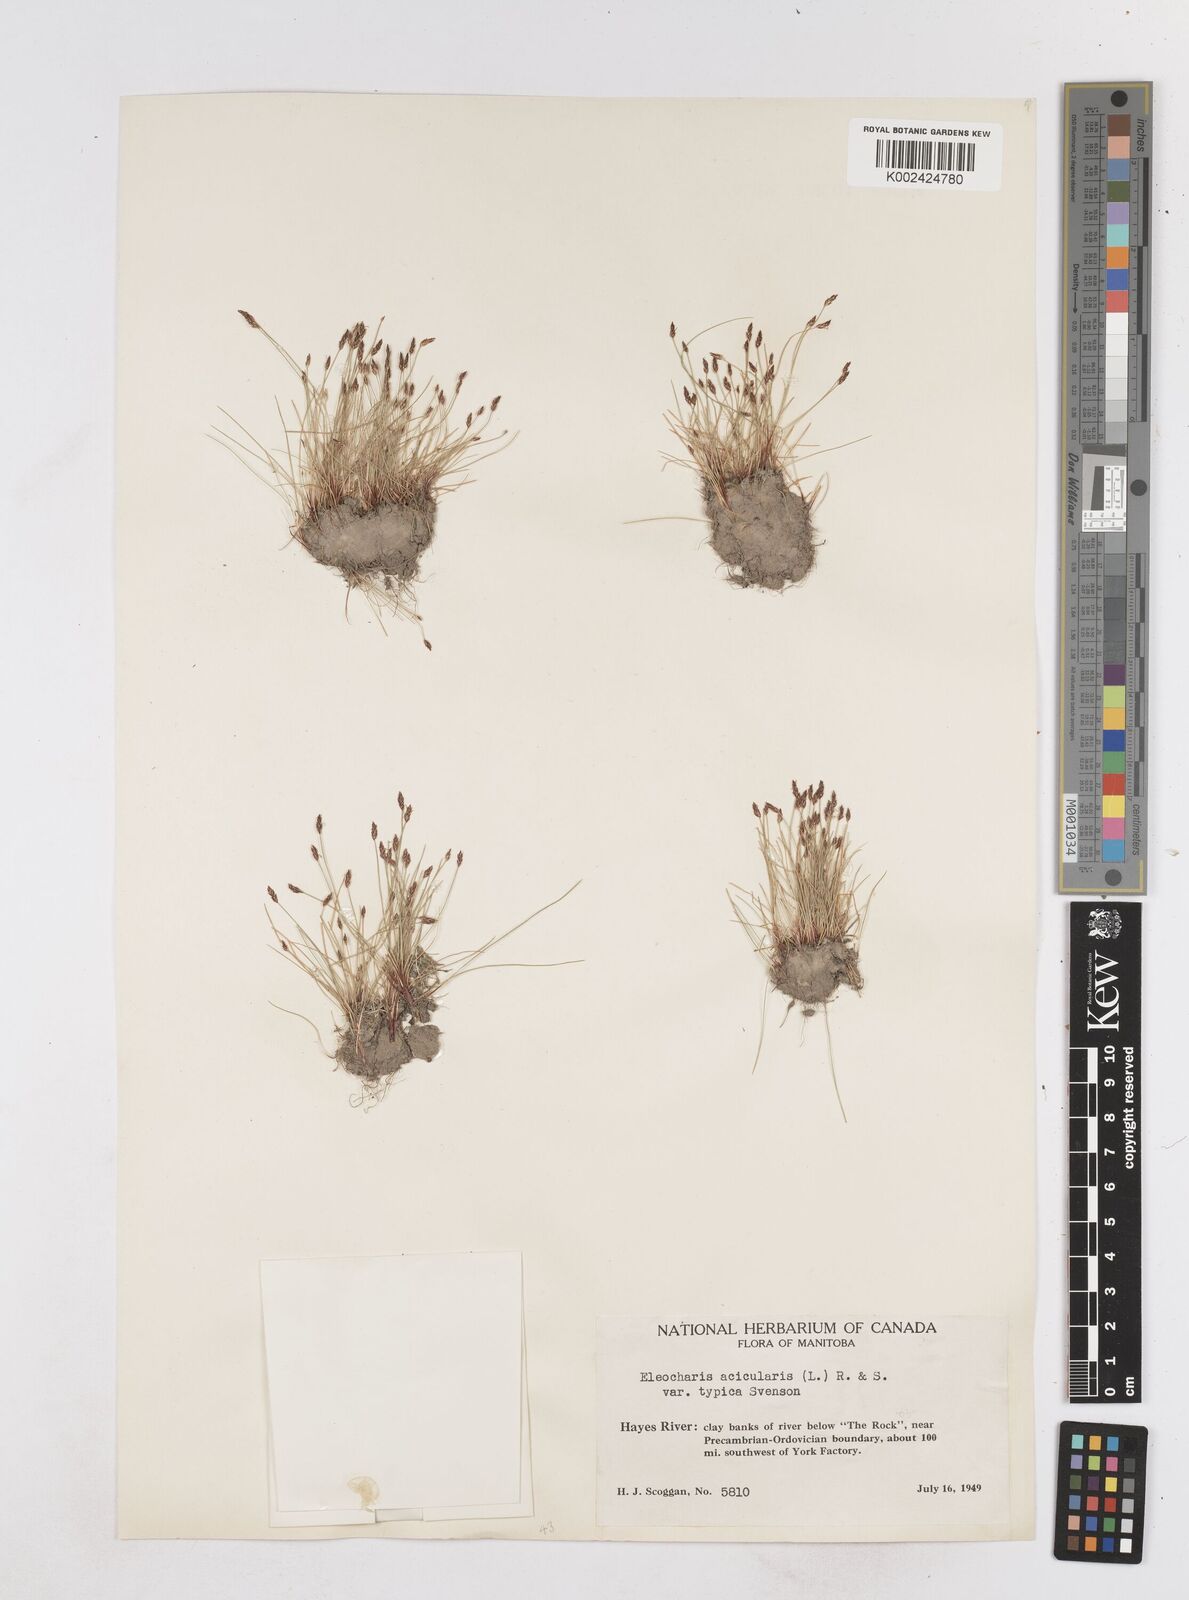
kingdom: Plantae
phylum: Tracheophyta
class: Liliopsida
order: Poales
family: Cyperaceae
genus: Eleocharis
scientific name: Eleocharis acicularis
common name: Needle spike-rush
